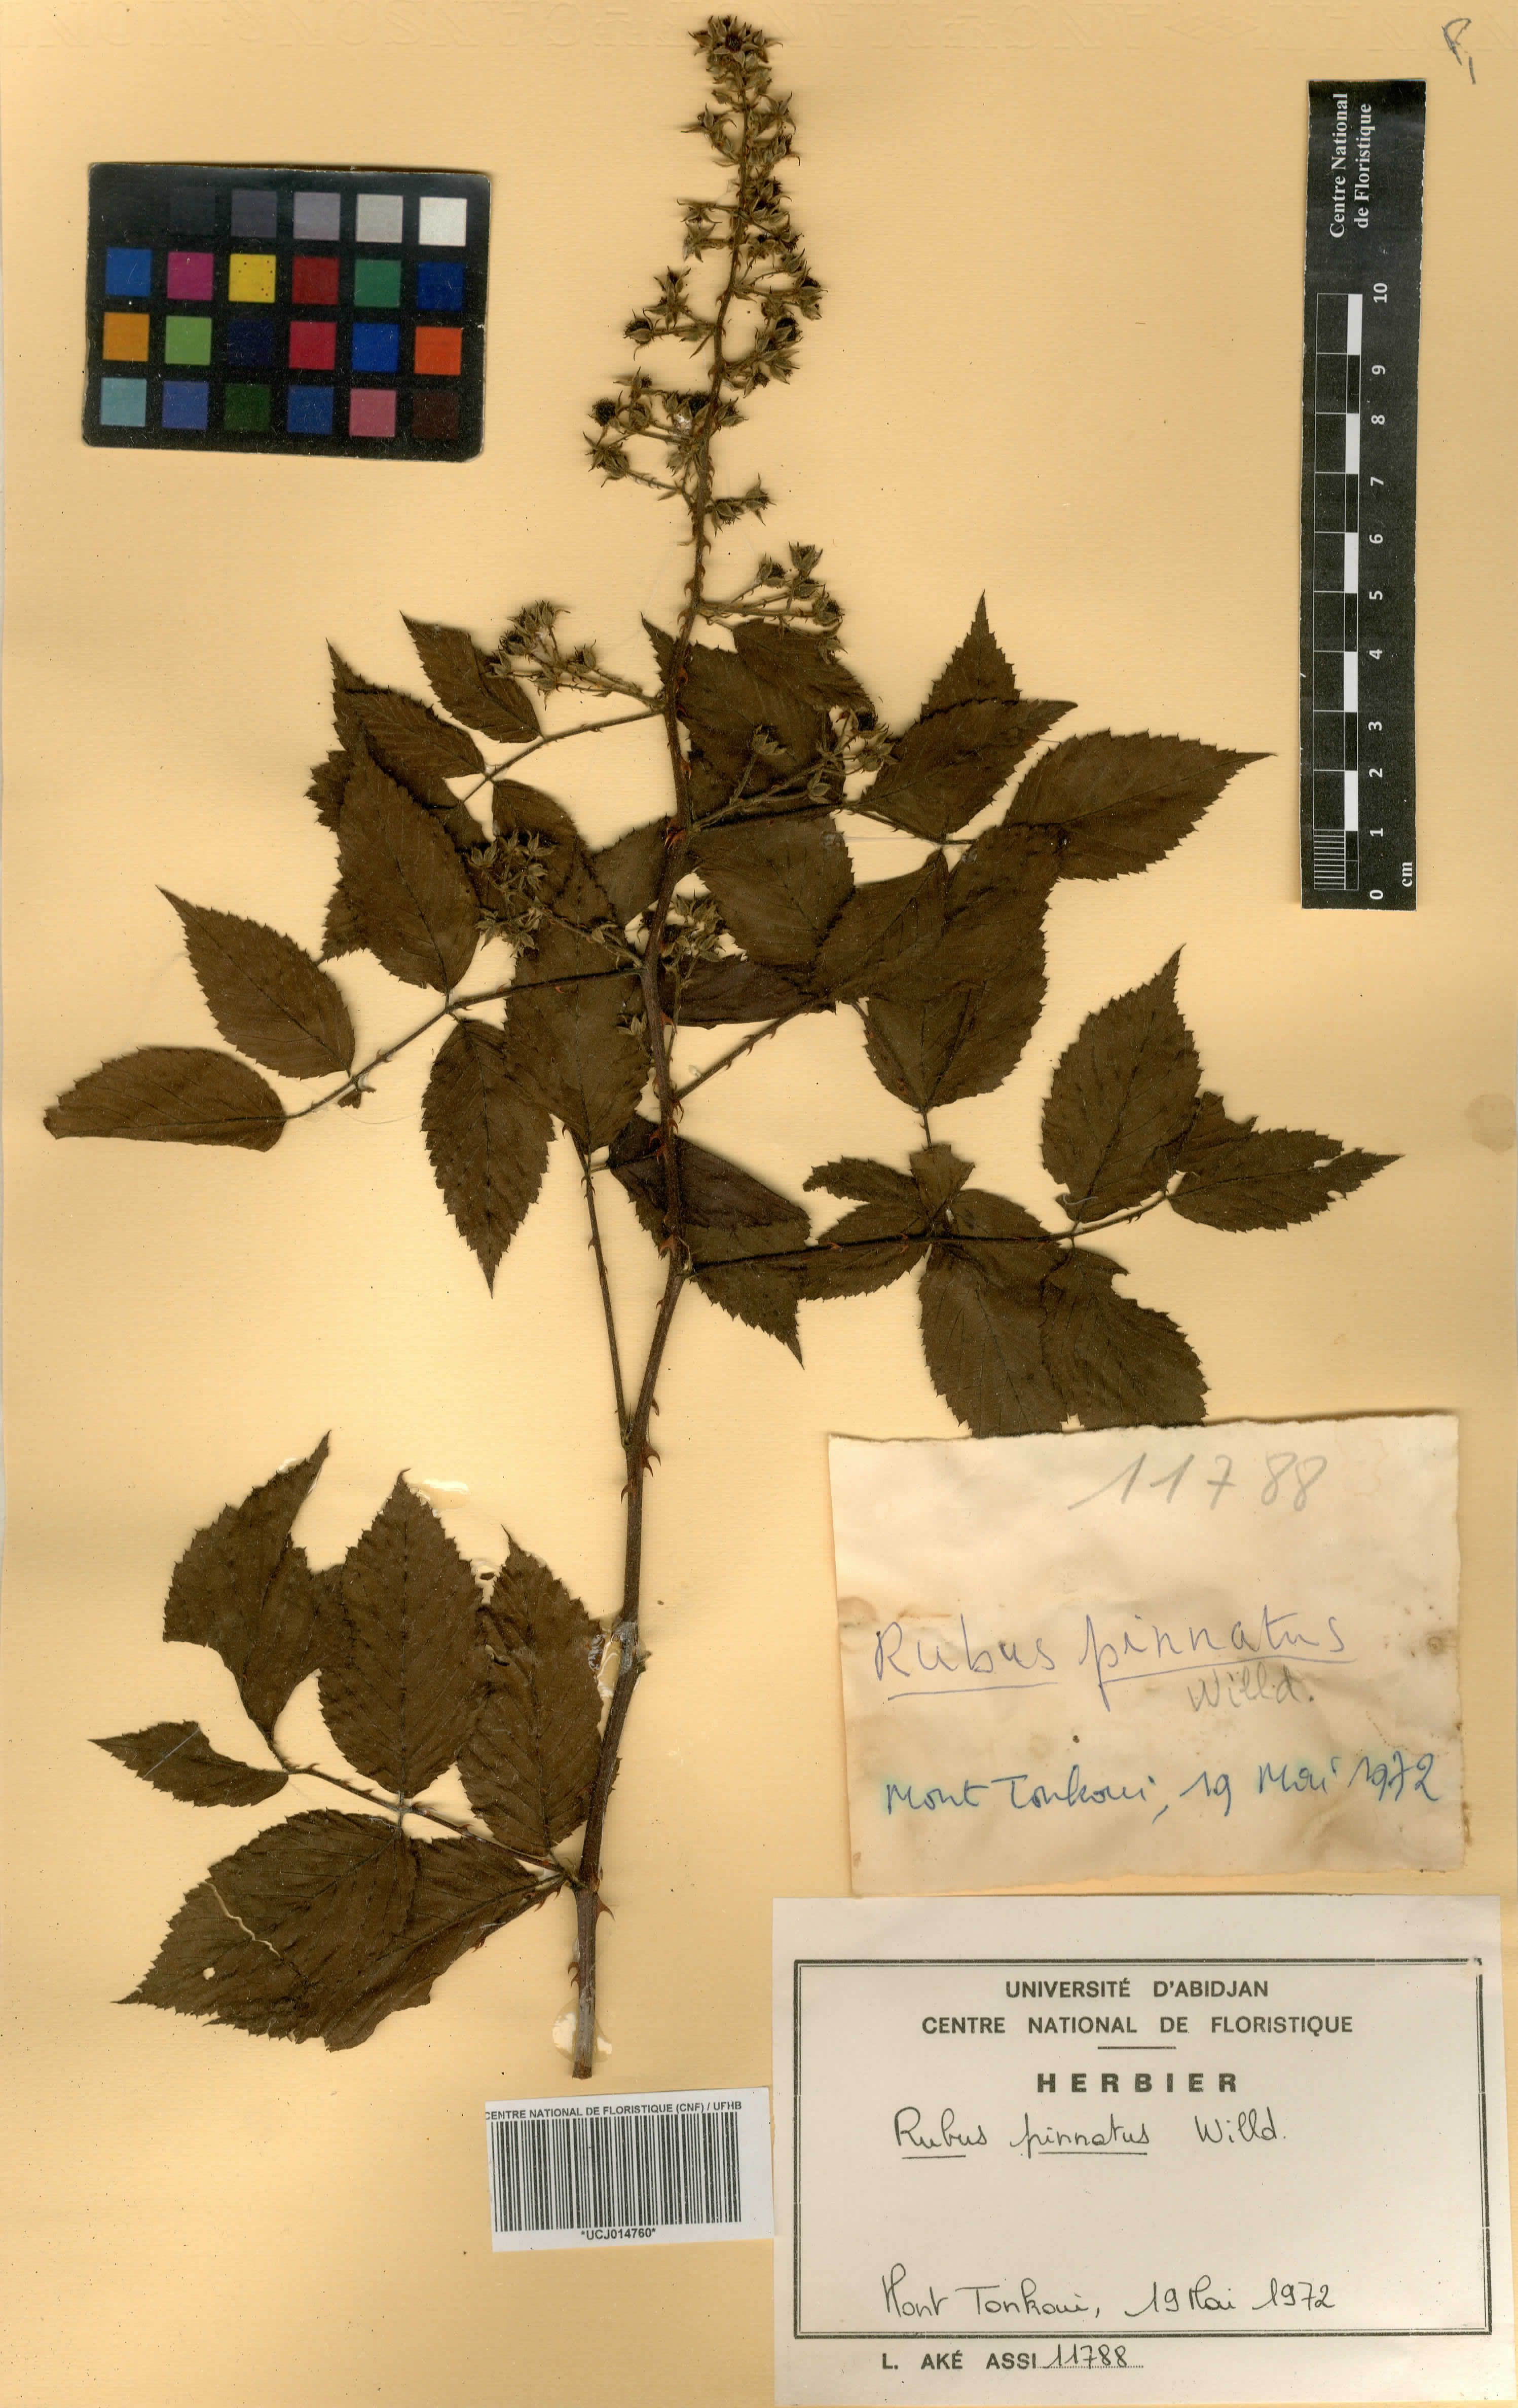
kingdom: Plantae
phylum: Tracheophyta
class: Magnoliopsida
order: Rosales
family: Rosaceae
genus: Rubus
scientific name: Rubus pinnatus
